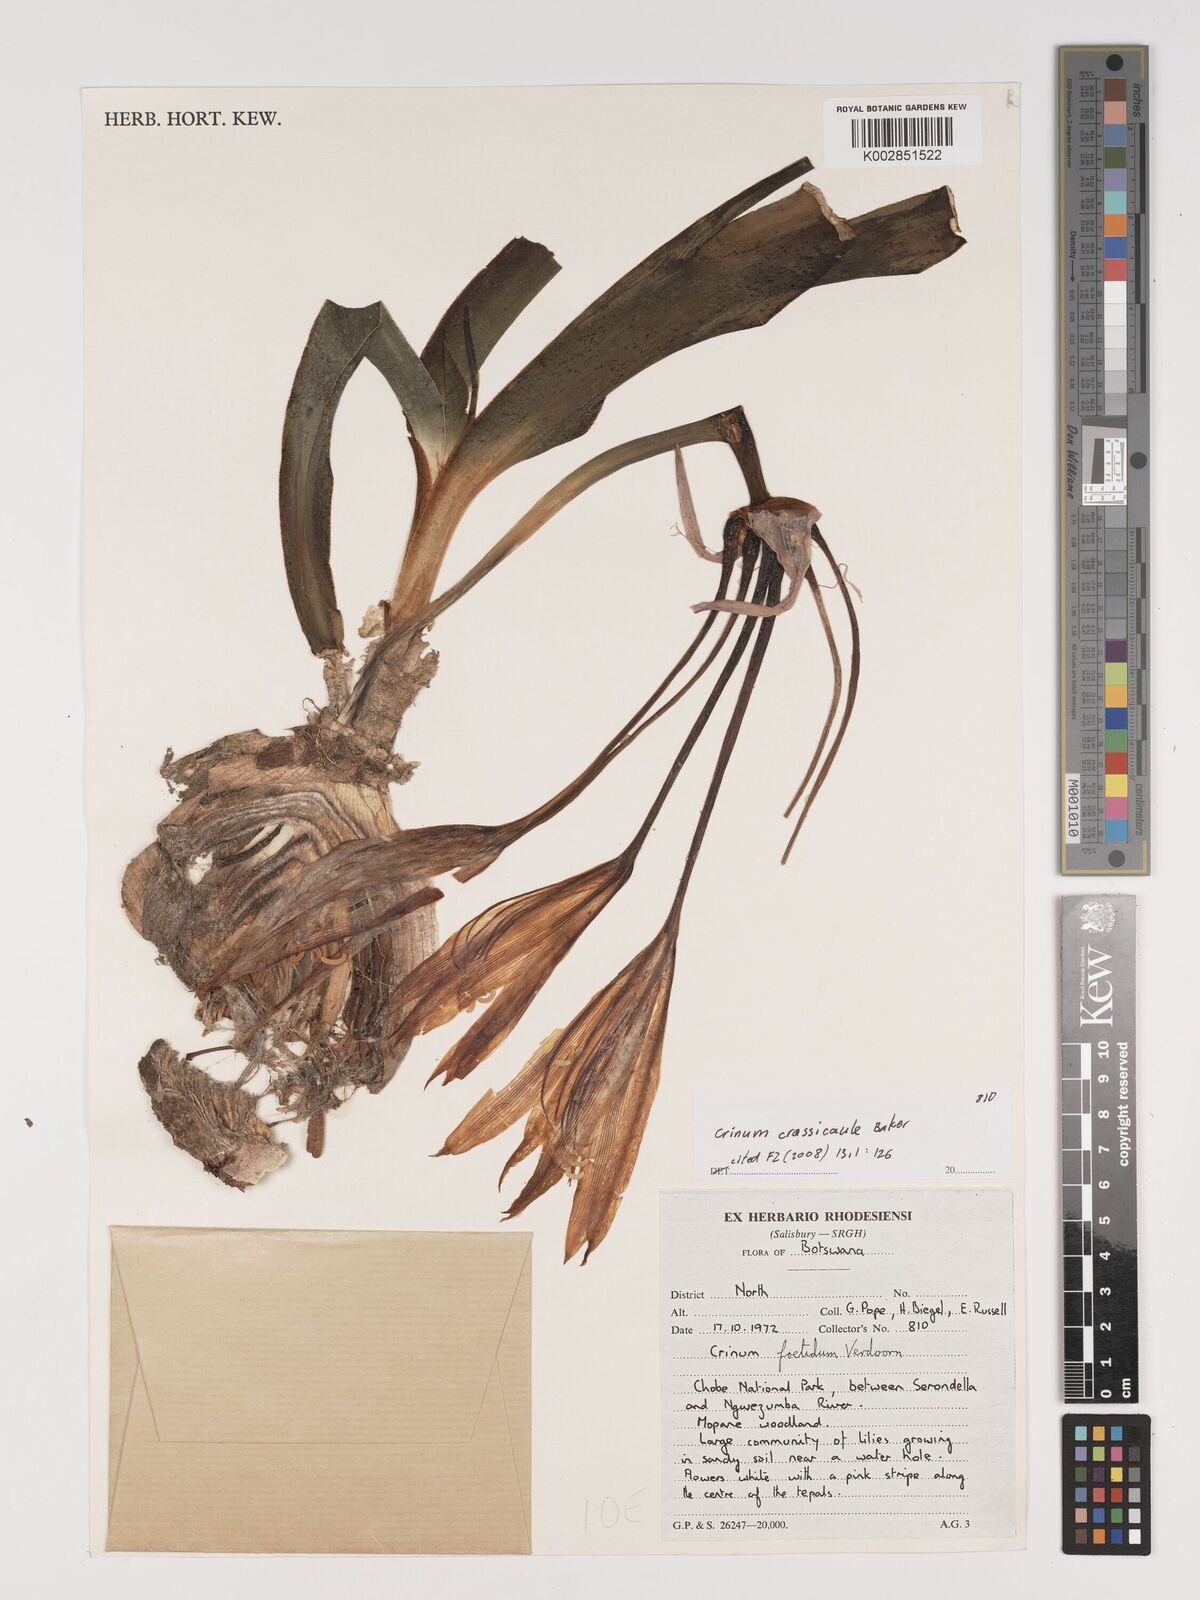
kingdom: Plantae
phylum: Tracheophyta
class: Liliopsida
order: Asparagales
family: Amaryllidaceae
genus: Crinum
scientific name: Crinum crassicaule
